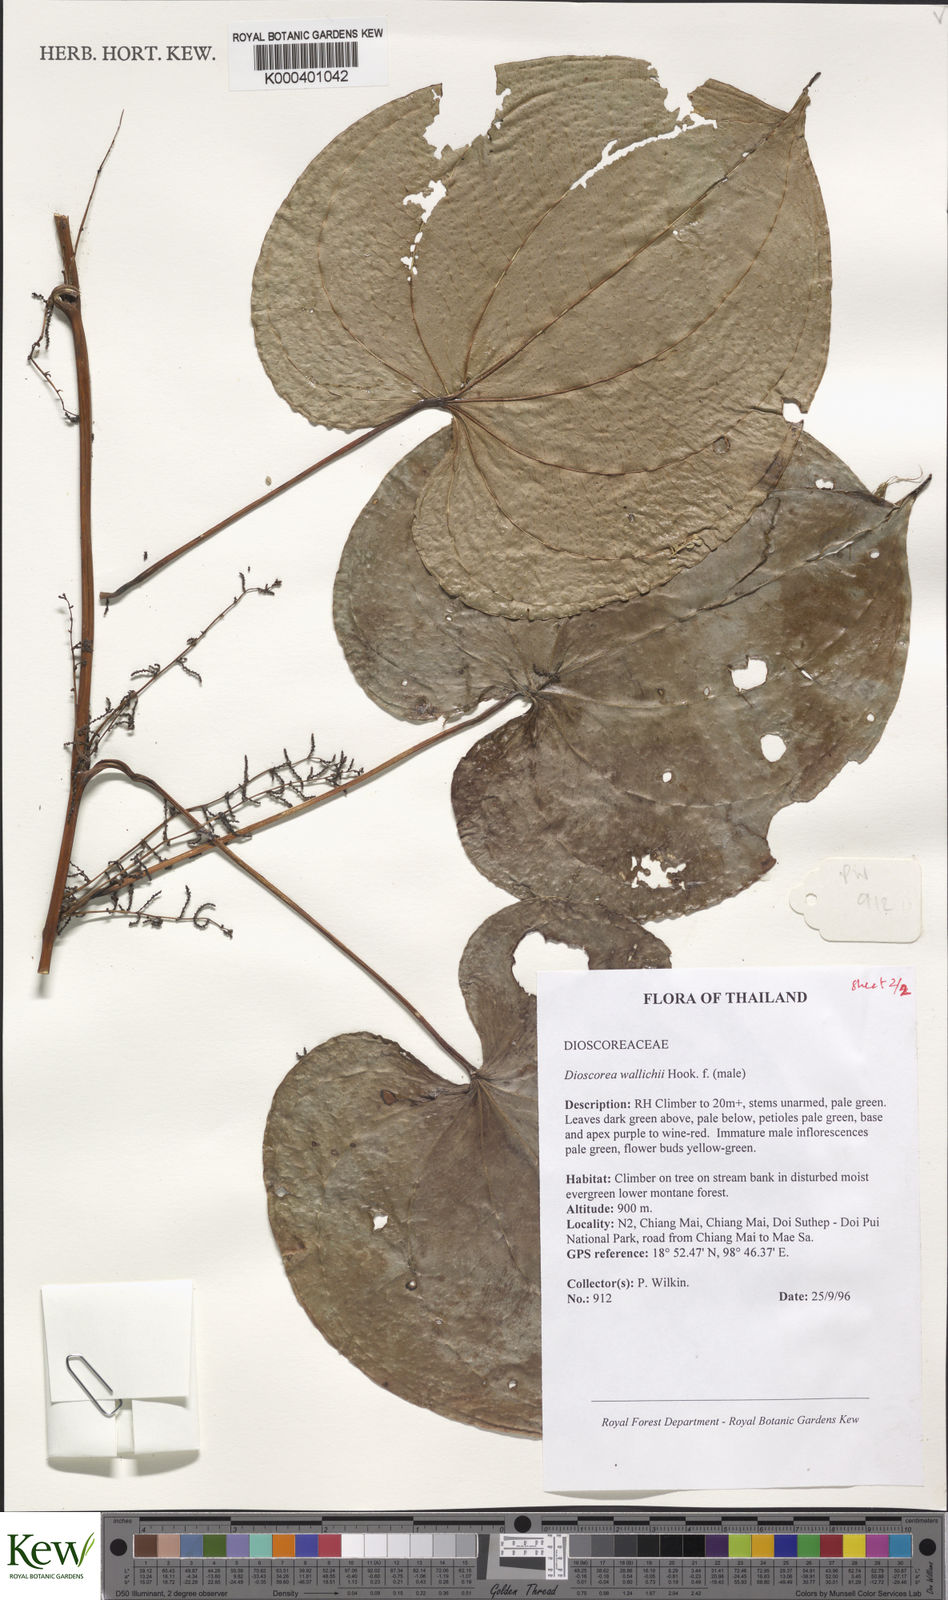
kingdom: Plantae
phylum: Tracheophyta
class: Liliopsida
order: Dioscoreales
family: Dioscoreaceae
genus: Dioscorea
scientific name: Dioscorea wallichii
